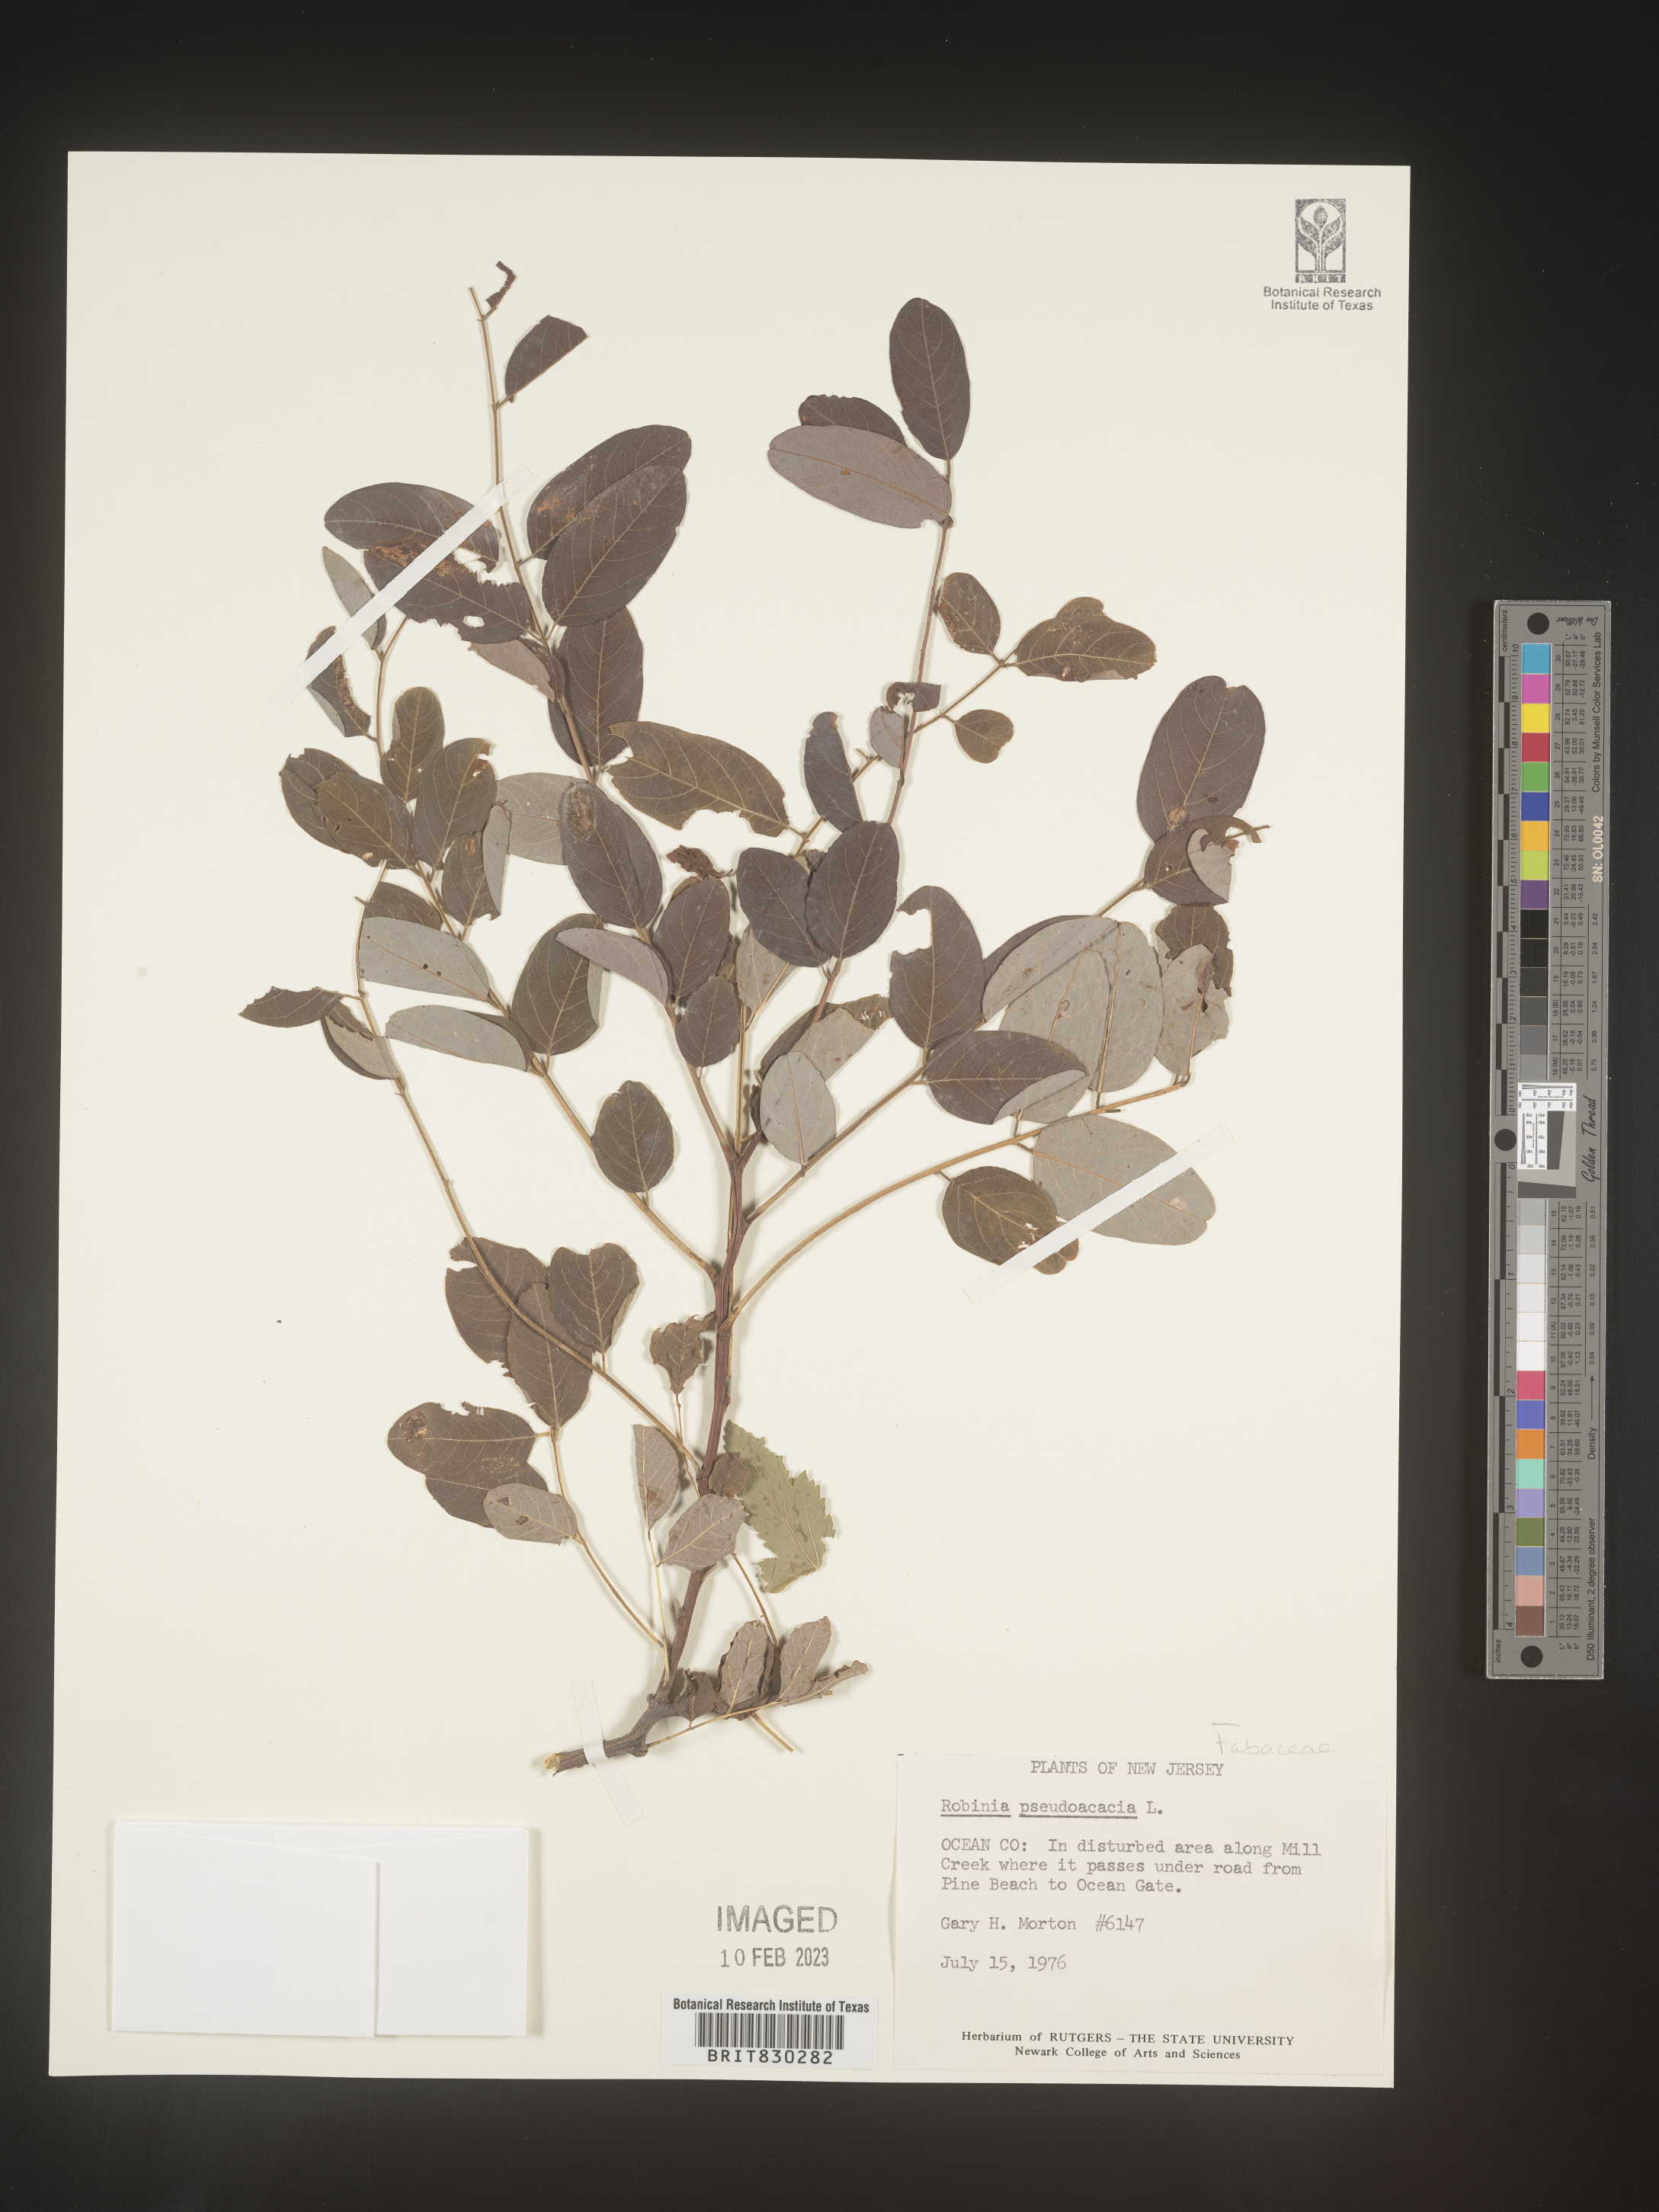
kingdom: Plantae
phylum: Tracheophyta
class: Magnoliopsida
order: Fabales
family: Fabaceae
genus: Robinia
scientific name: Robinia pseudoacacia
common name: Black locust
